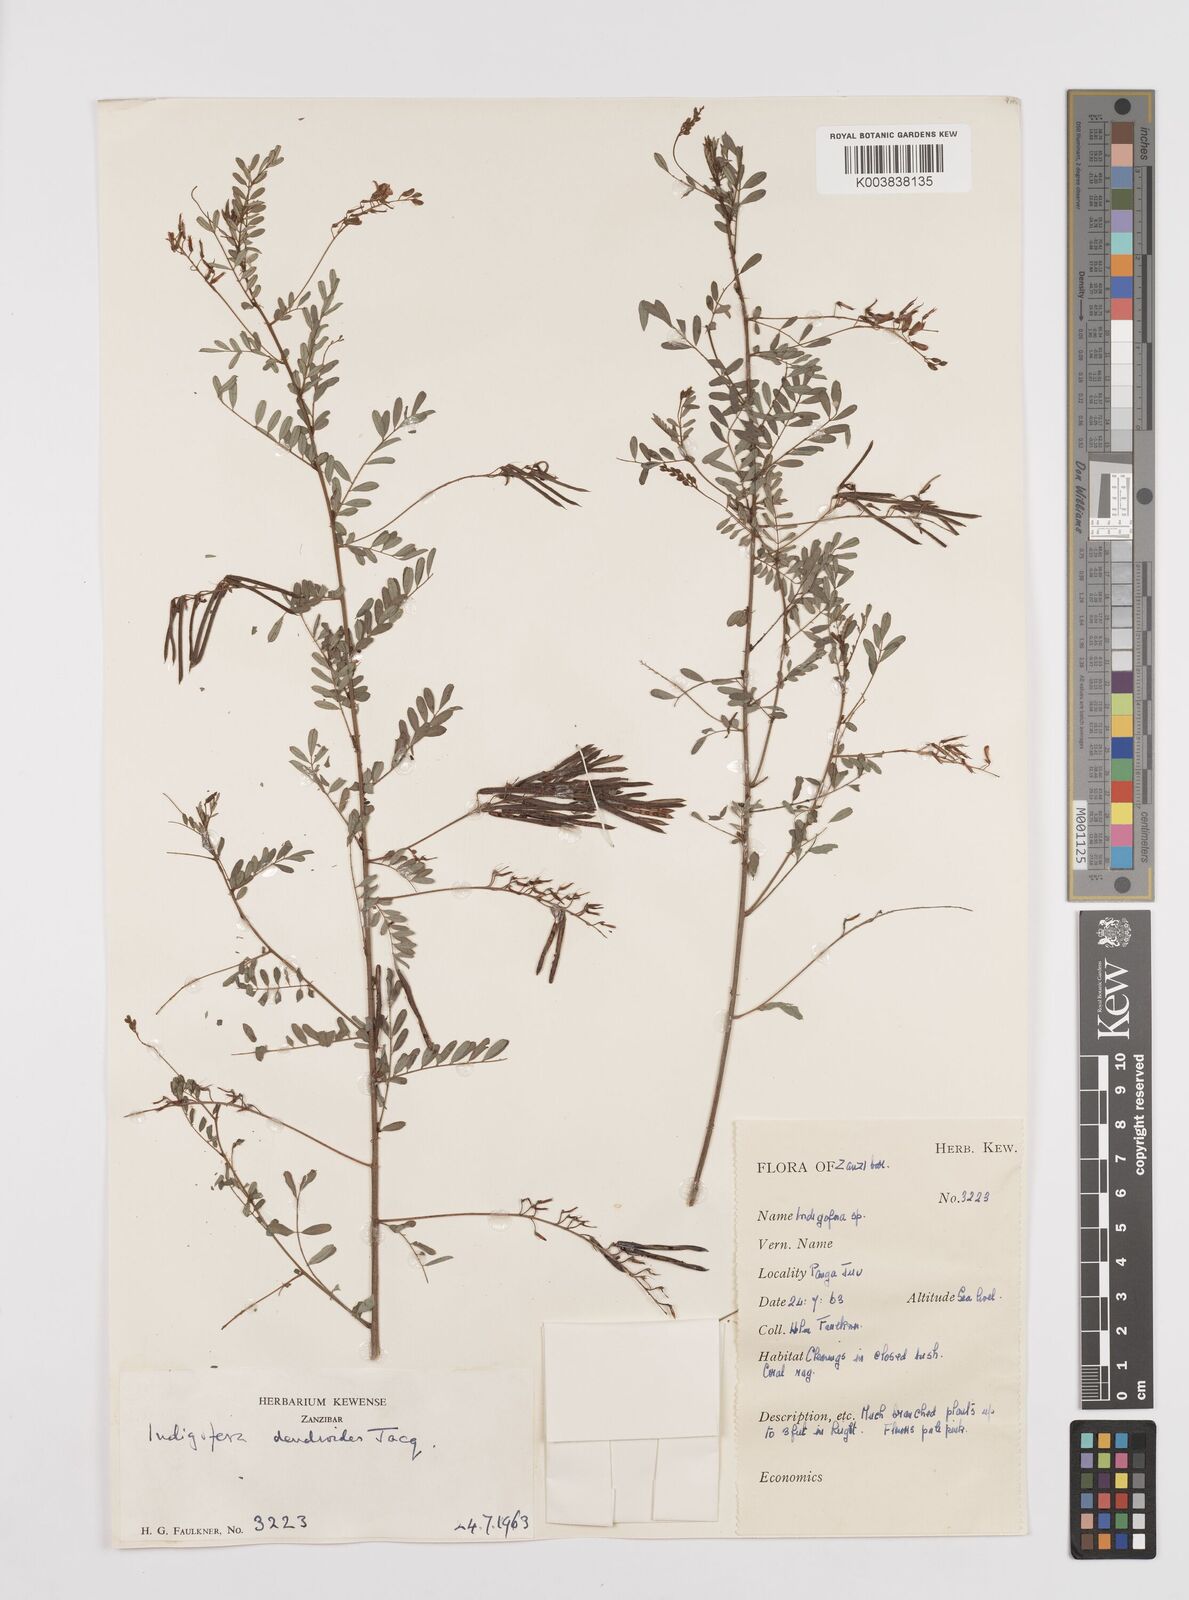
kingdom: Plantae
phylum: Tracheophyta
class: Magnoliopsida
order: Fabales
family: Fabaceae
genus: Indigofera
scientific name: Indigofera dendroides
